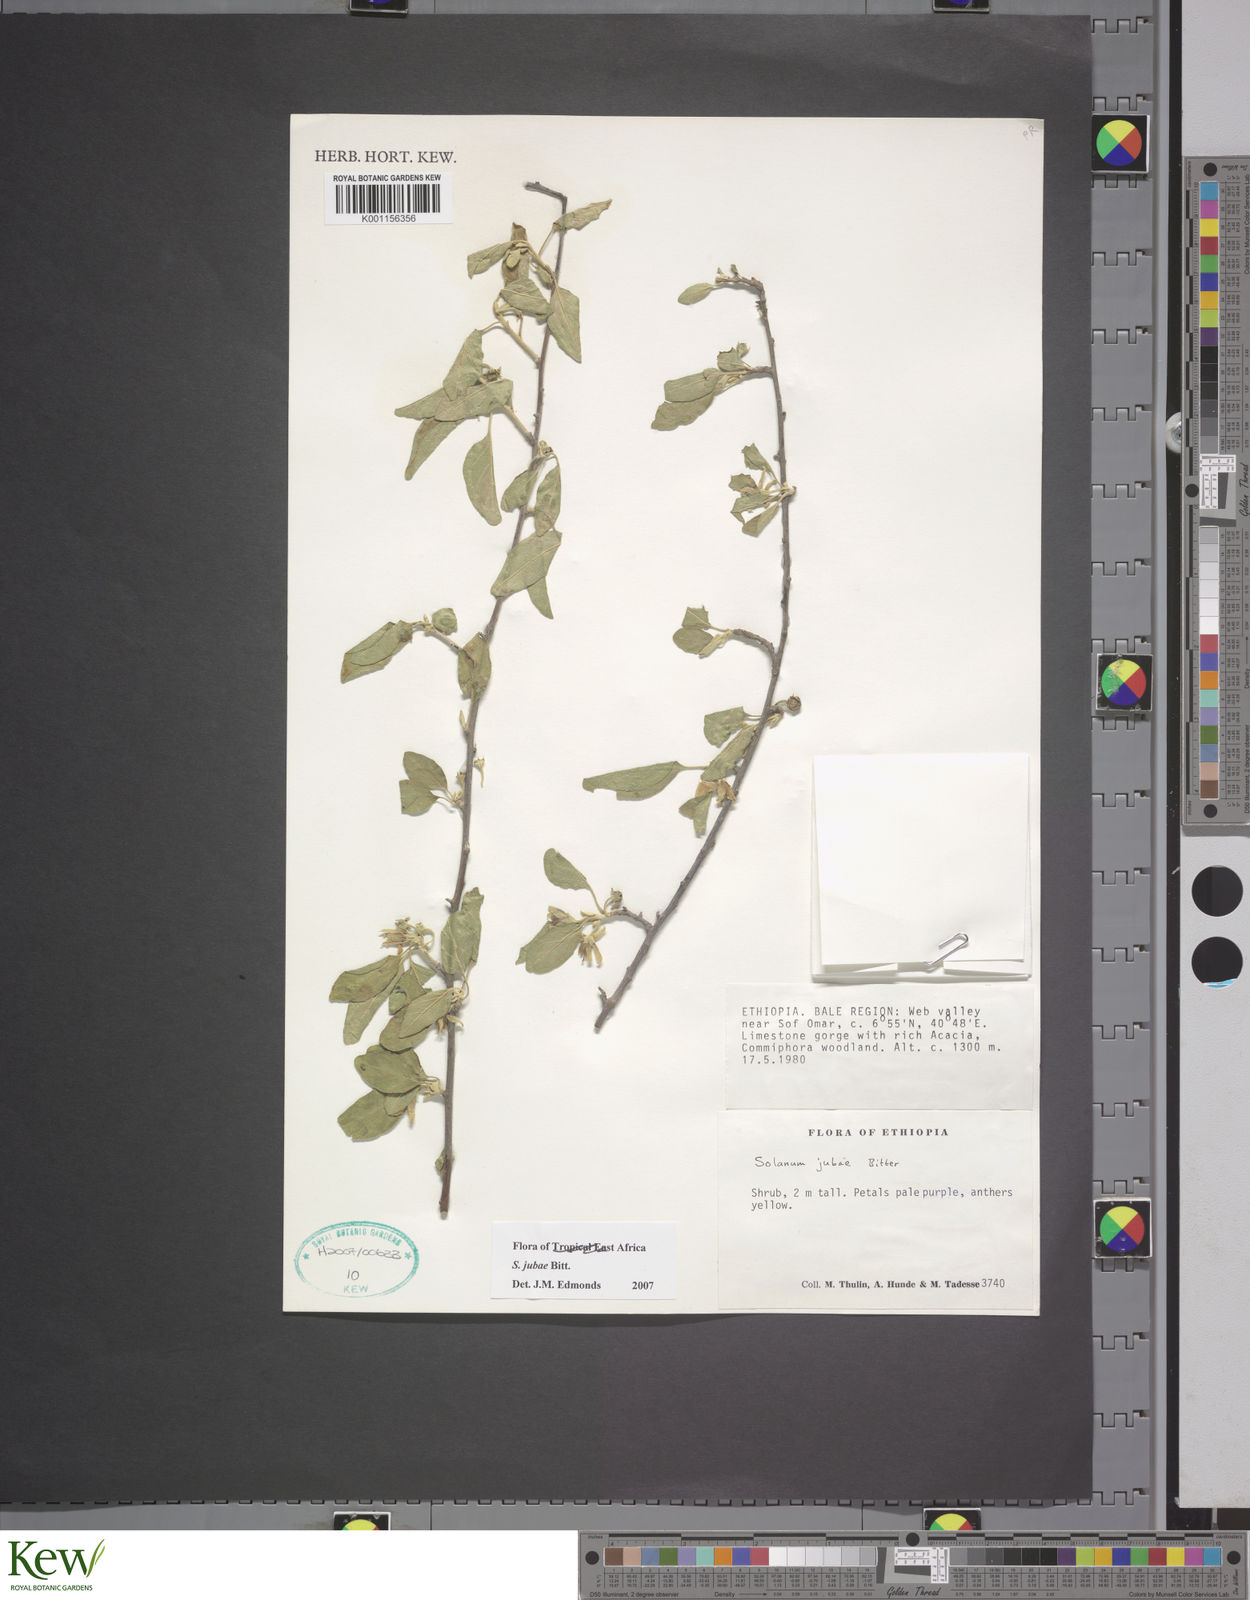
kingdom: Plantae
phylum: Tracheophyta
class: Magnoliopsida
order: Solanales
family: Solanaceae
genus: Solanum
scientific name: Solanum jubae
